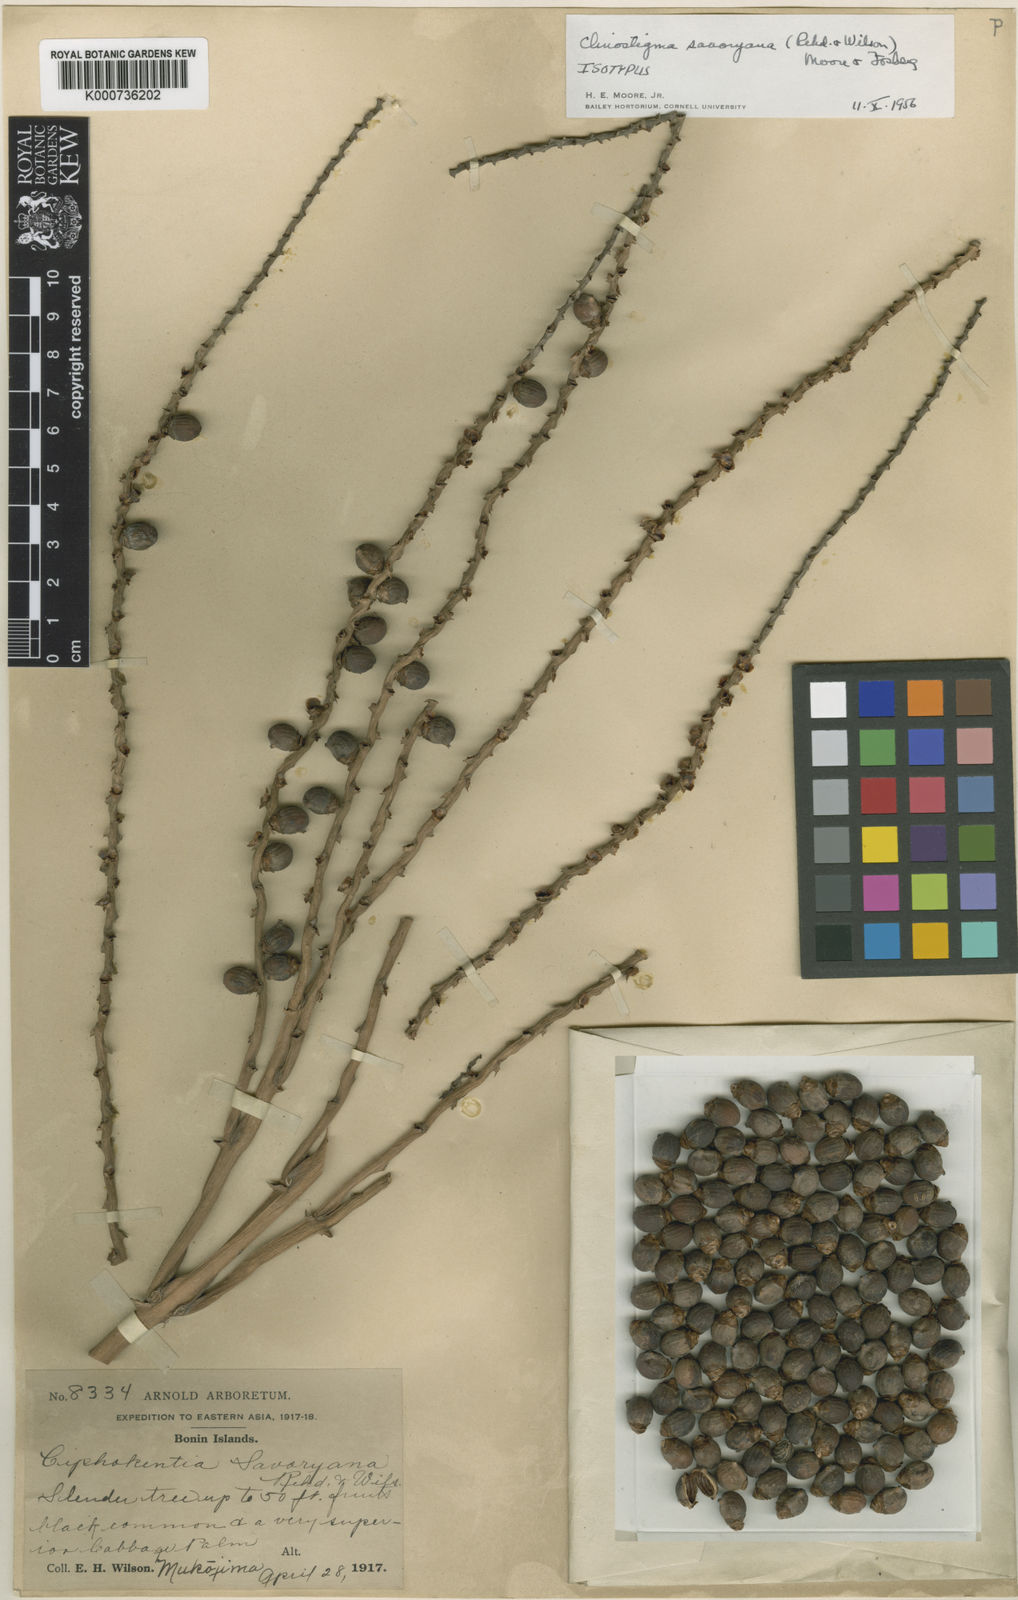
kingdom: Plantae
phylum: Tracheophyta
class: Liliopsida
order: Arecales
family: Arecaceae
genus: Clinostigma
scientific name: Clinostigma savoryanum
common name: Arrack tree
